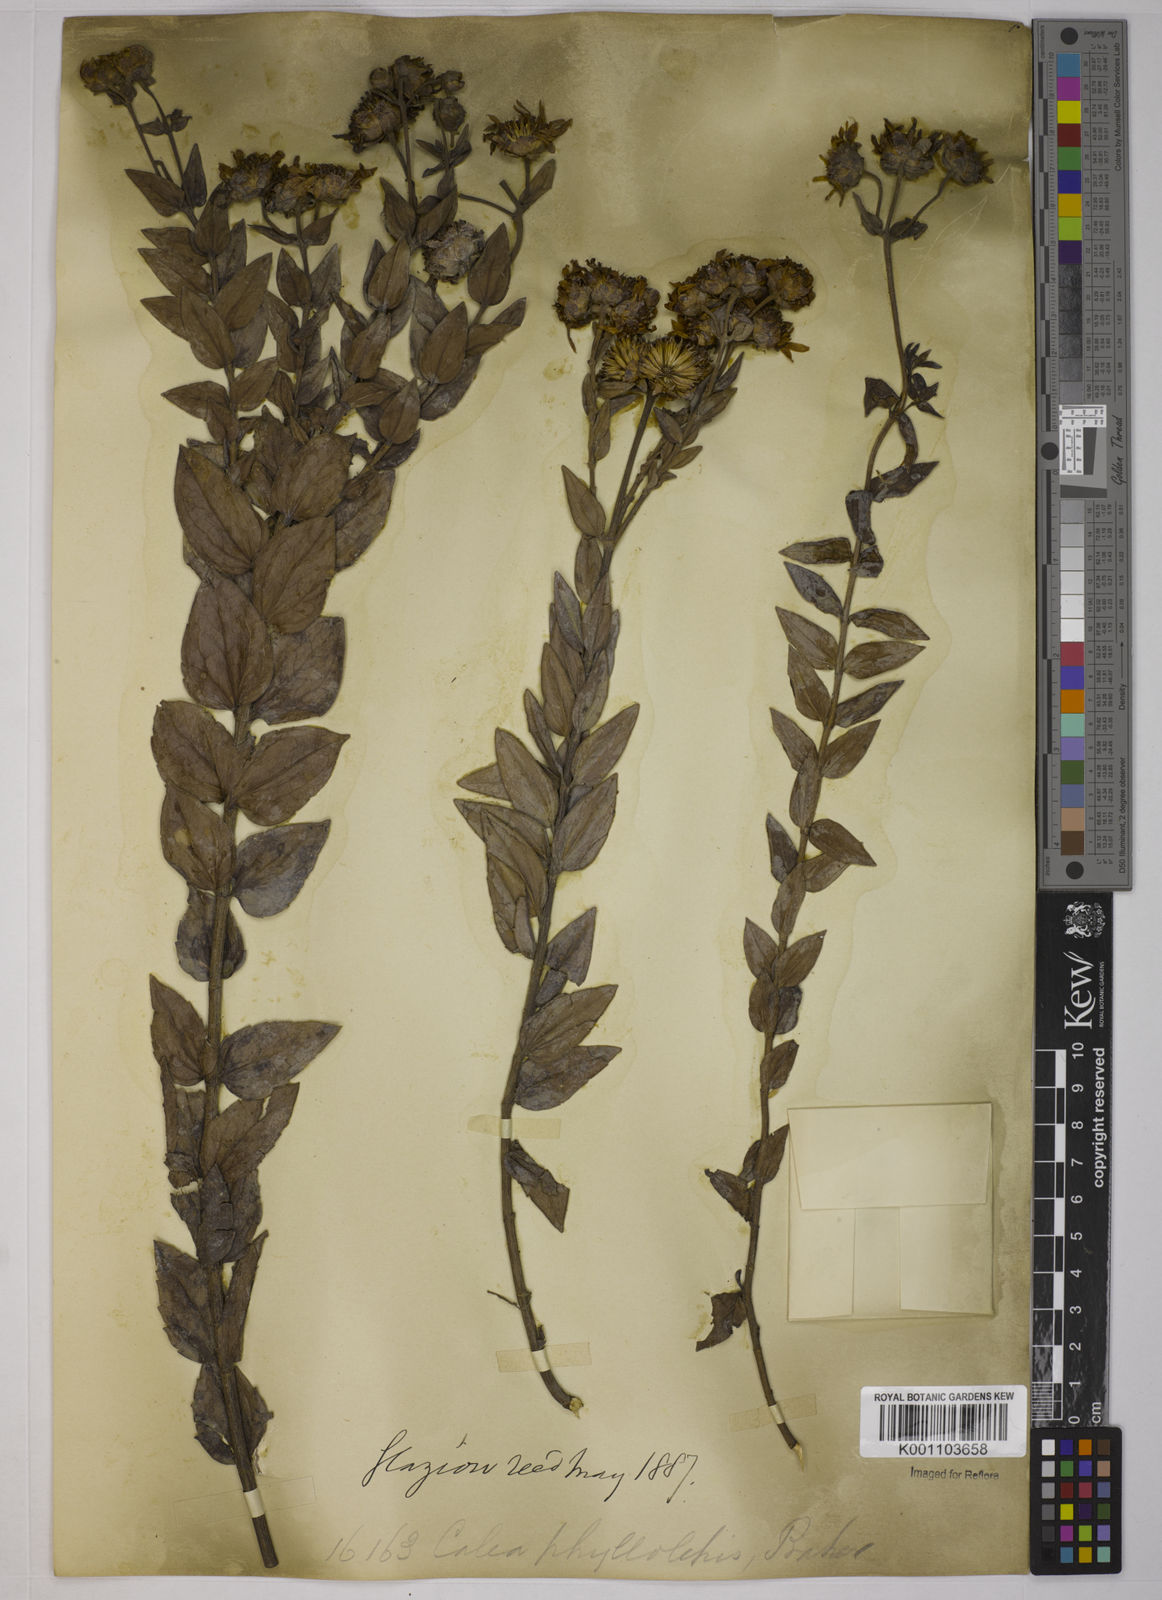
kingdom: Plantae
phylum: Tracheophyta
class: Magnoliopsida
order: Asterales
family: Asteraceae
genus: Calea
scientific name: Calea phyllolepis
